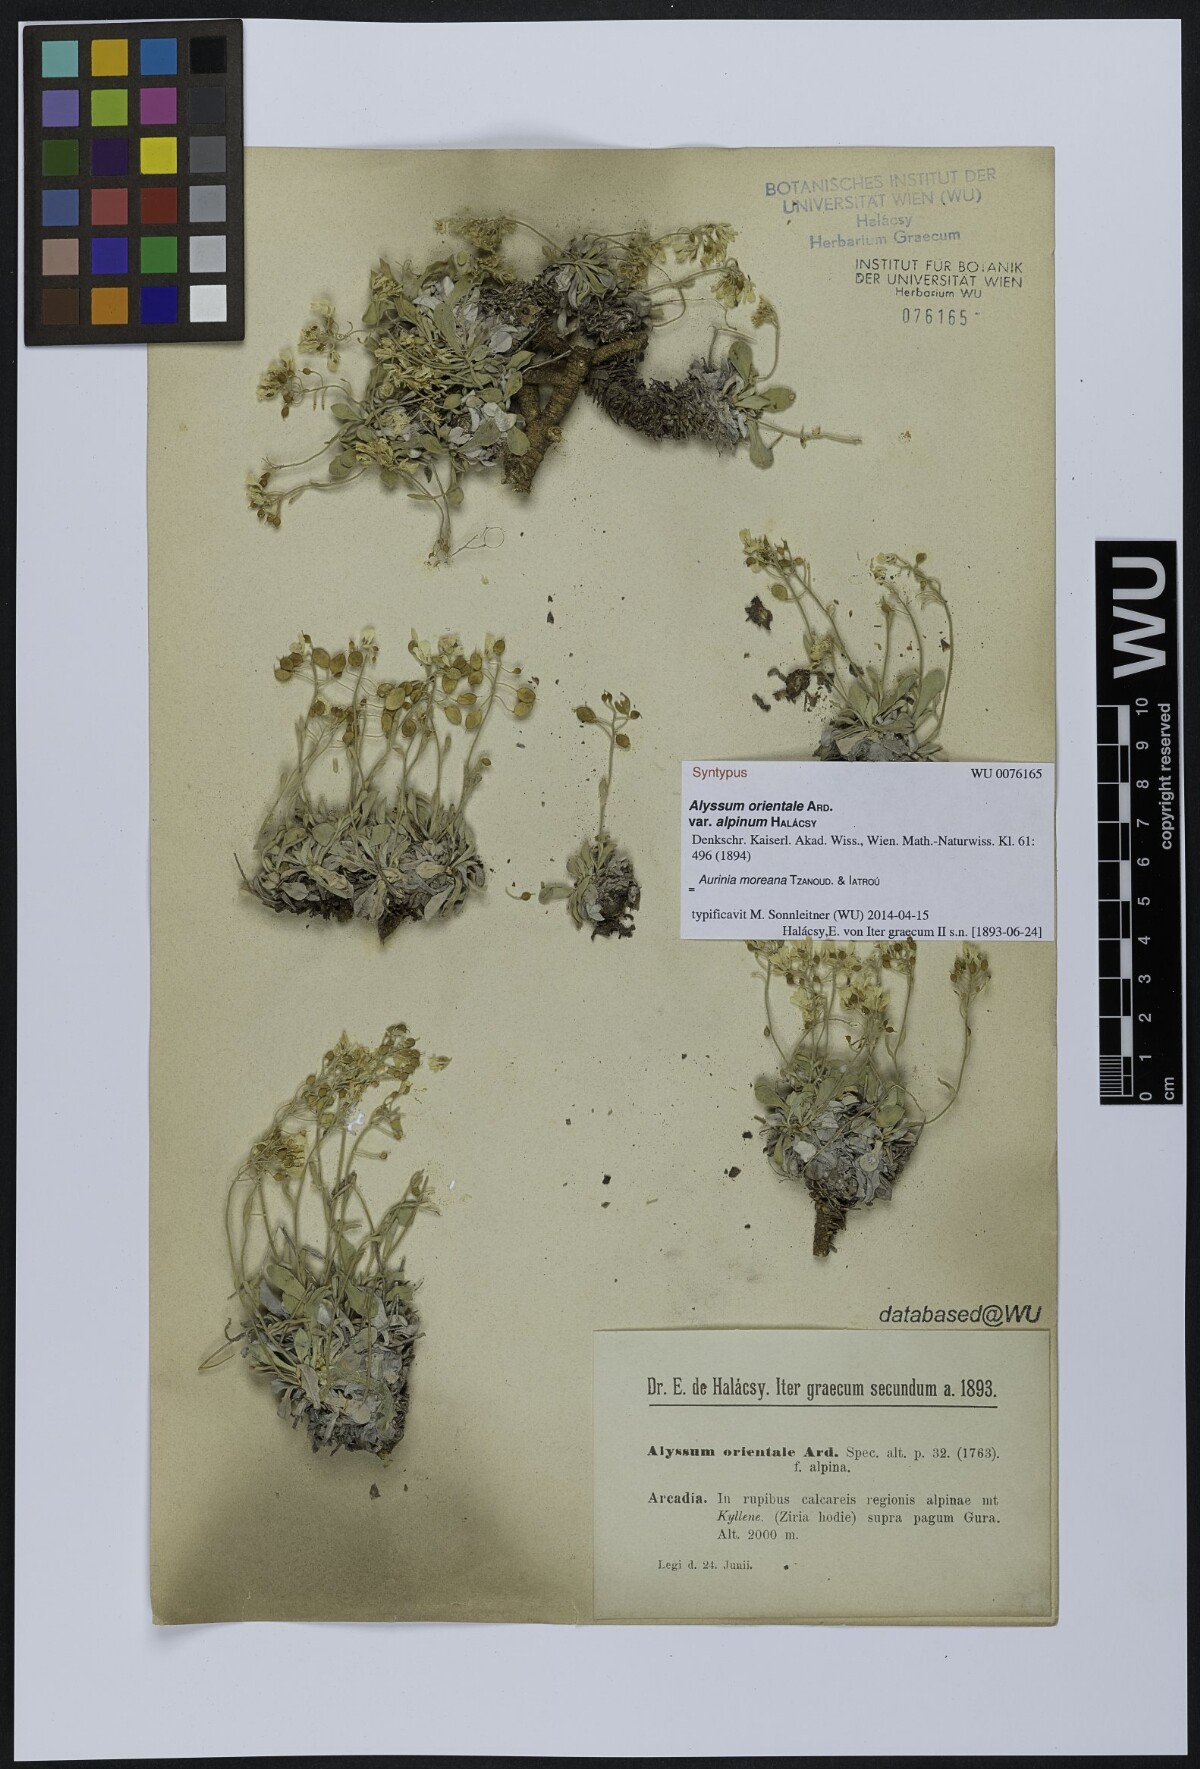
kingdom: Plantae
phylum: Tracheophyta
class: Magnoliopsida
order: Brassicales
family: Brassicaceae
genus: Aurinia
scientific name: Aurinia moreana
